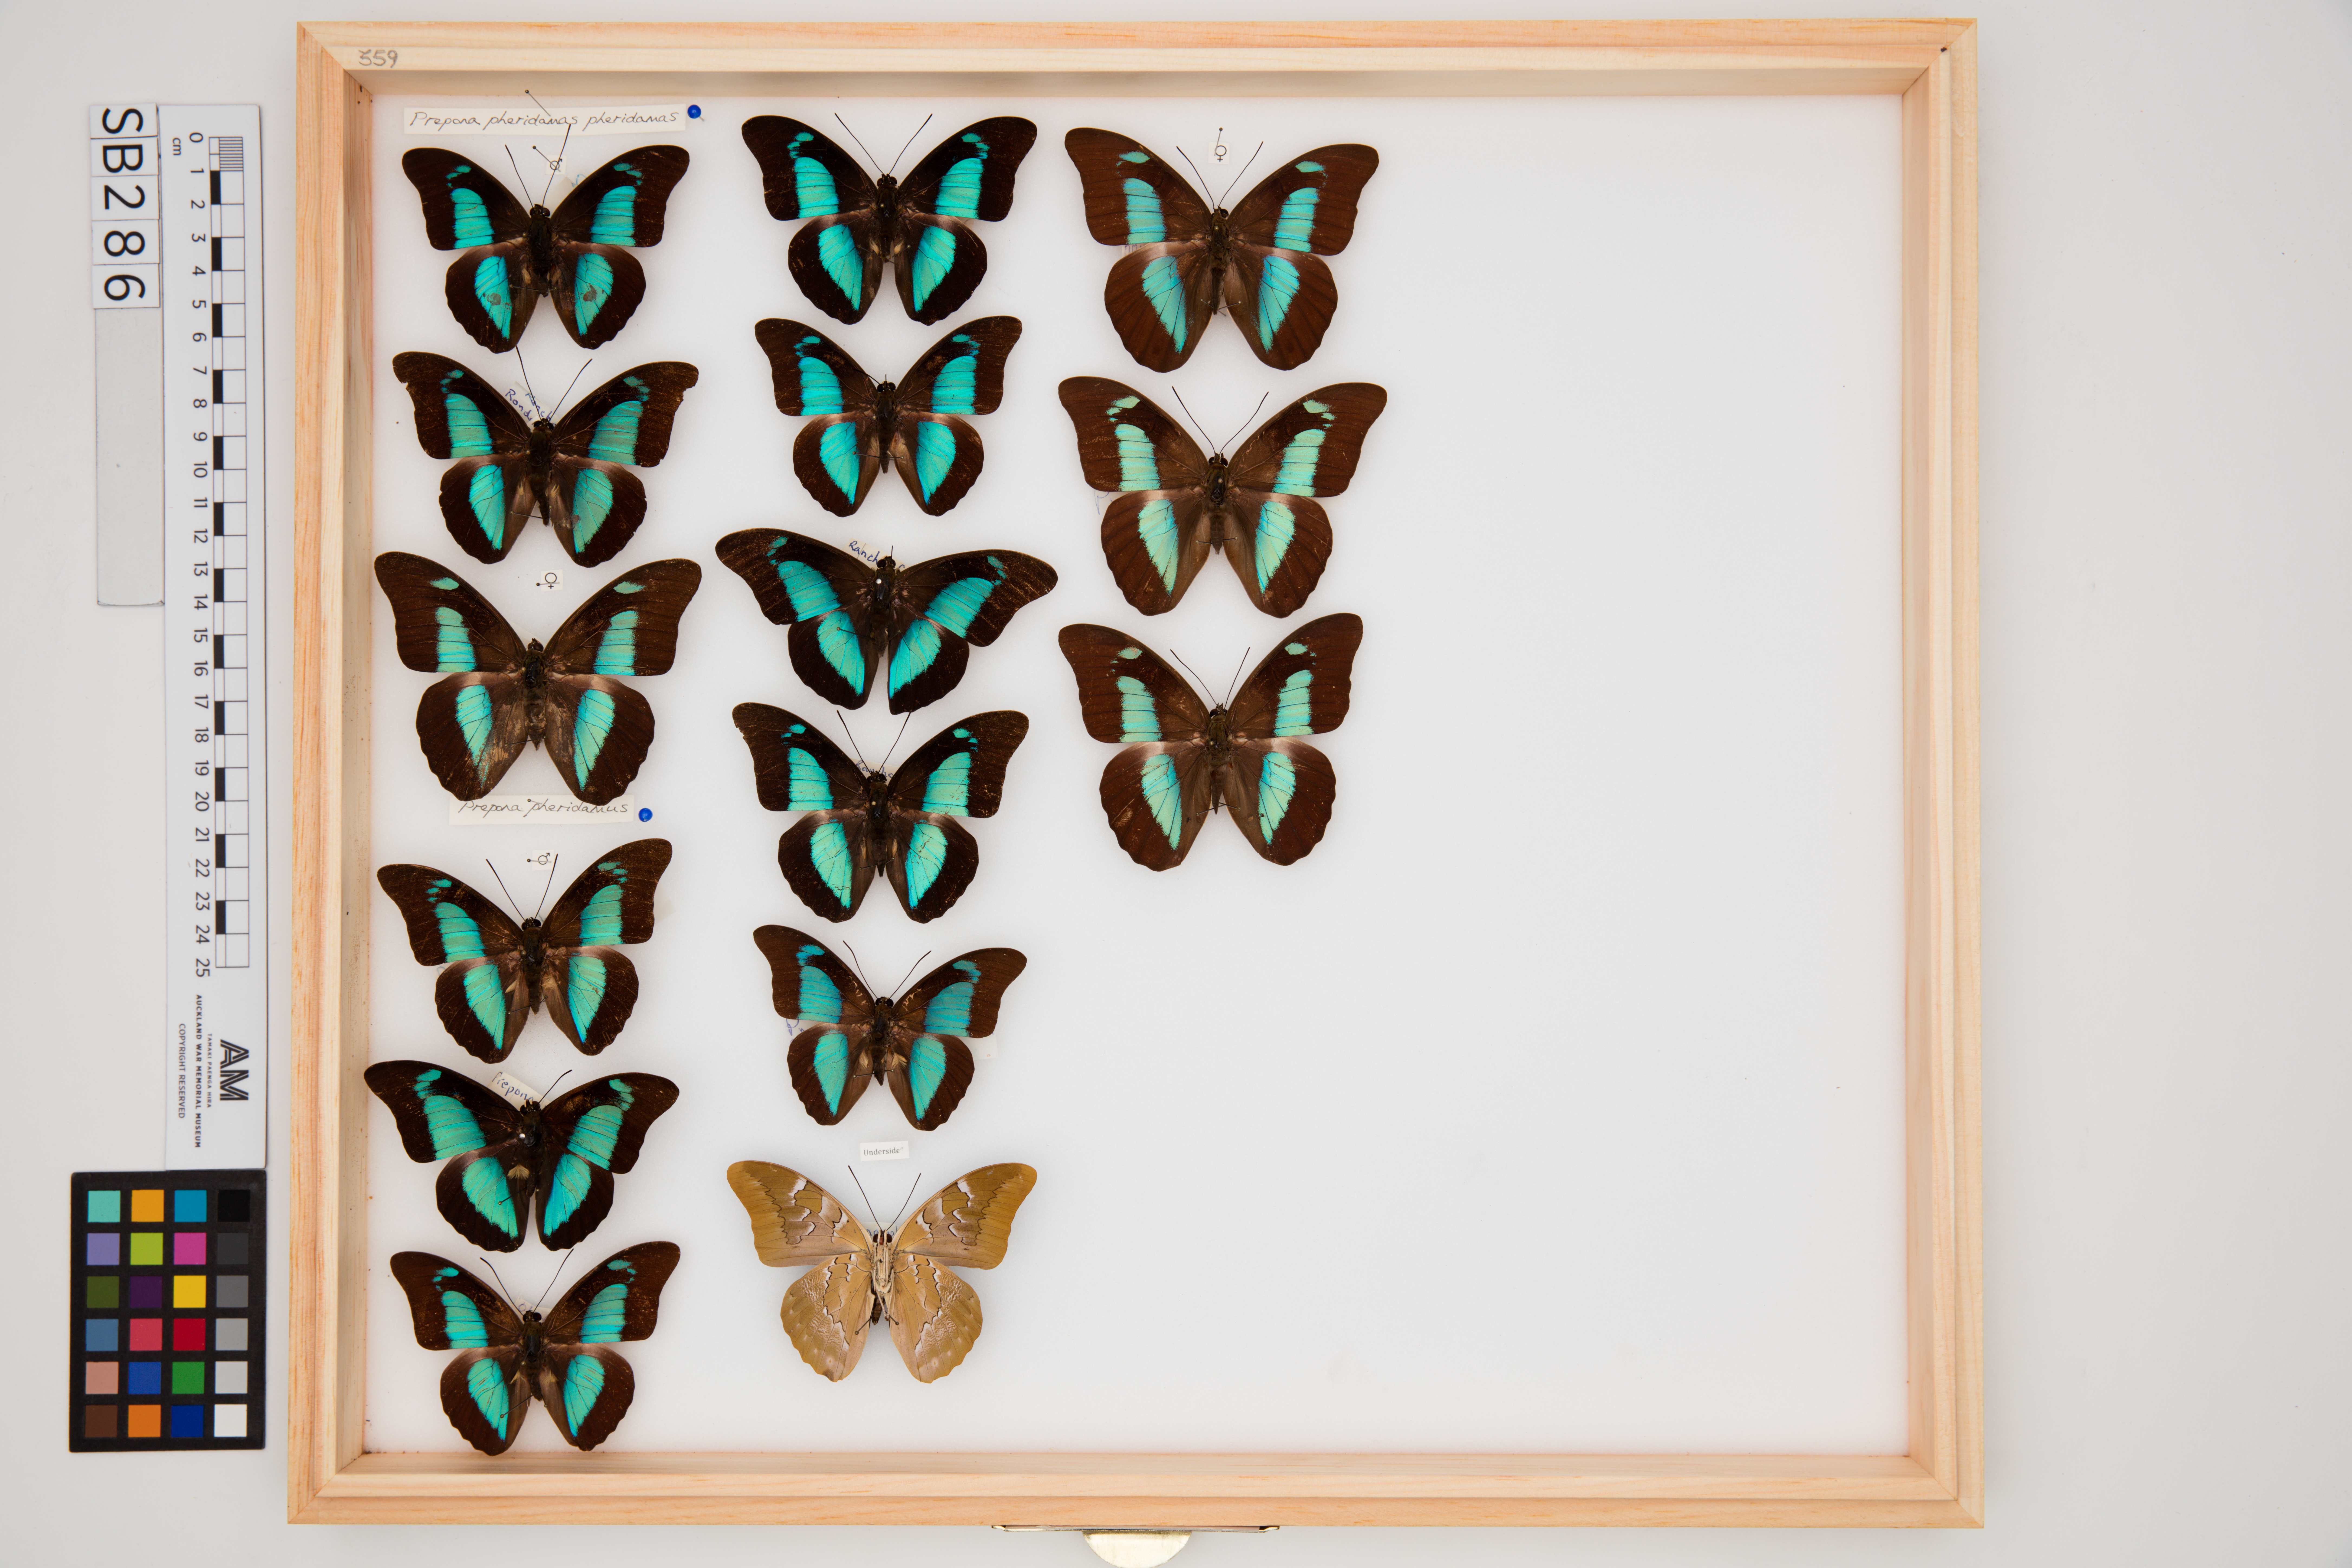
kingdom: Animalia
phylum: Arthropoda
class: Insecta
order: Lepidoptera
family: Nymphalidae
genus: Prepona
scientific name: Prepona pheridamas
